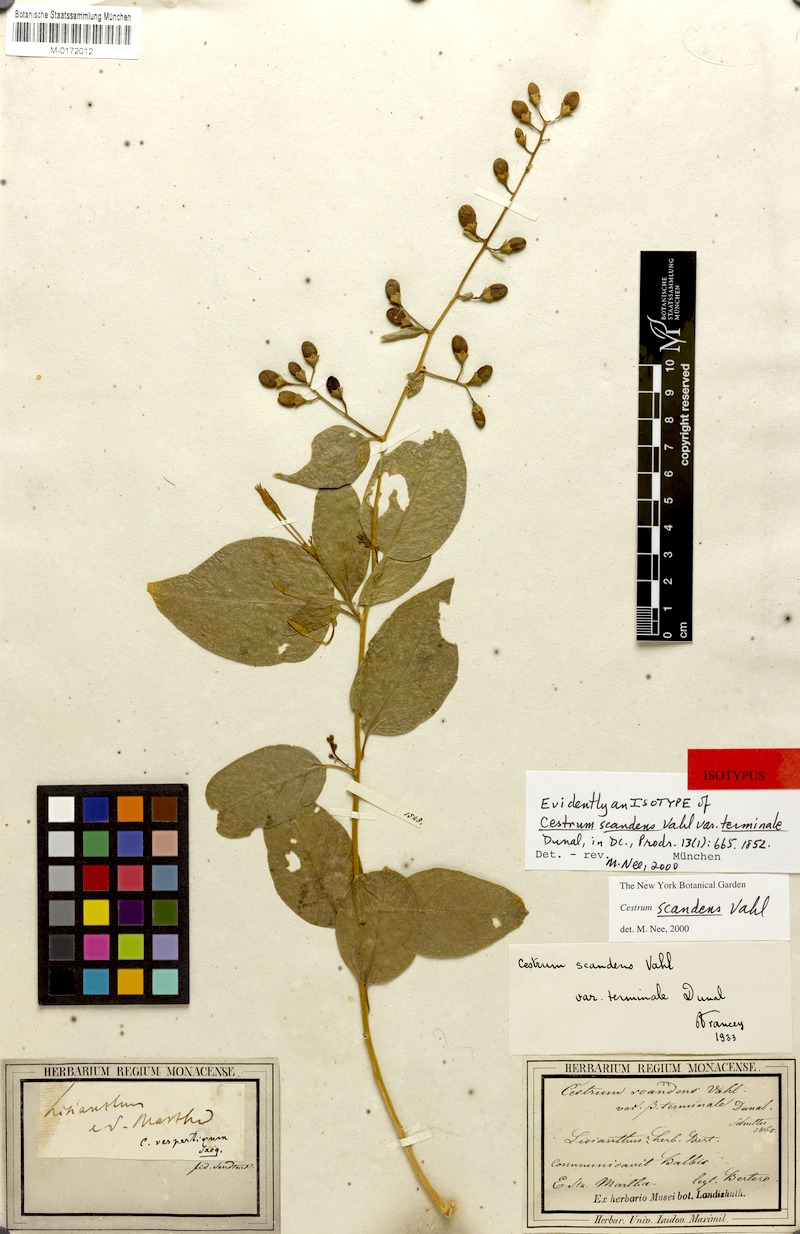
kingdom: Plantae
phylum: Tracheophyta
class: Magnoliopsida
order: Solanales
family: Solanaceae
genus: Cestrum
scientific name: Cestrum scandens
